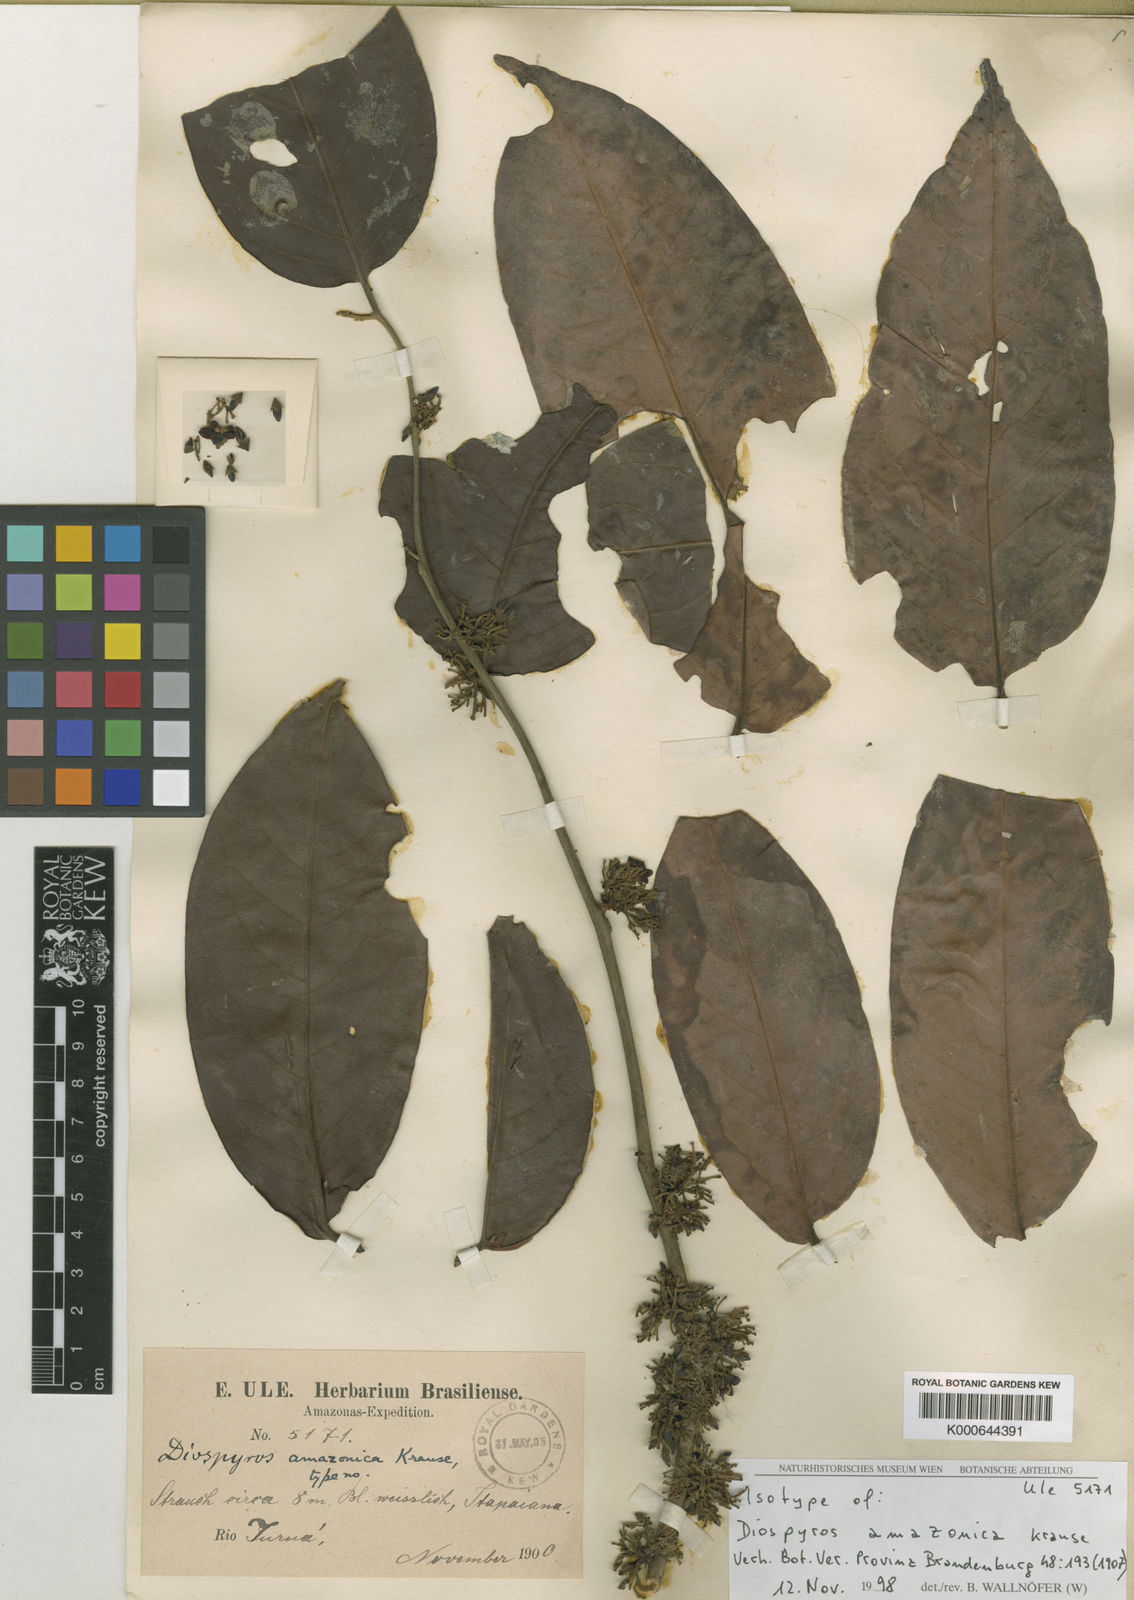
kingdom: Plantae
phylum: Tracheophyta
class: Magnoliopsida
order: Ericales
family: Ebenaceae
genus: Diospyros
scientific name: Diospyros subrotata
